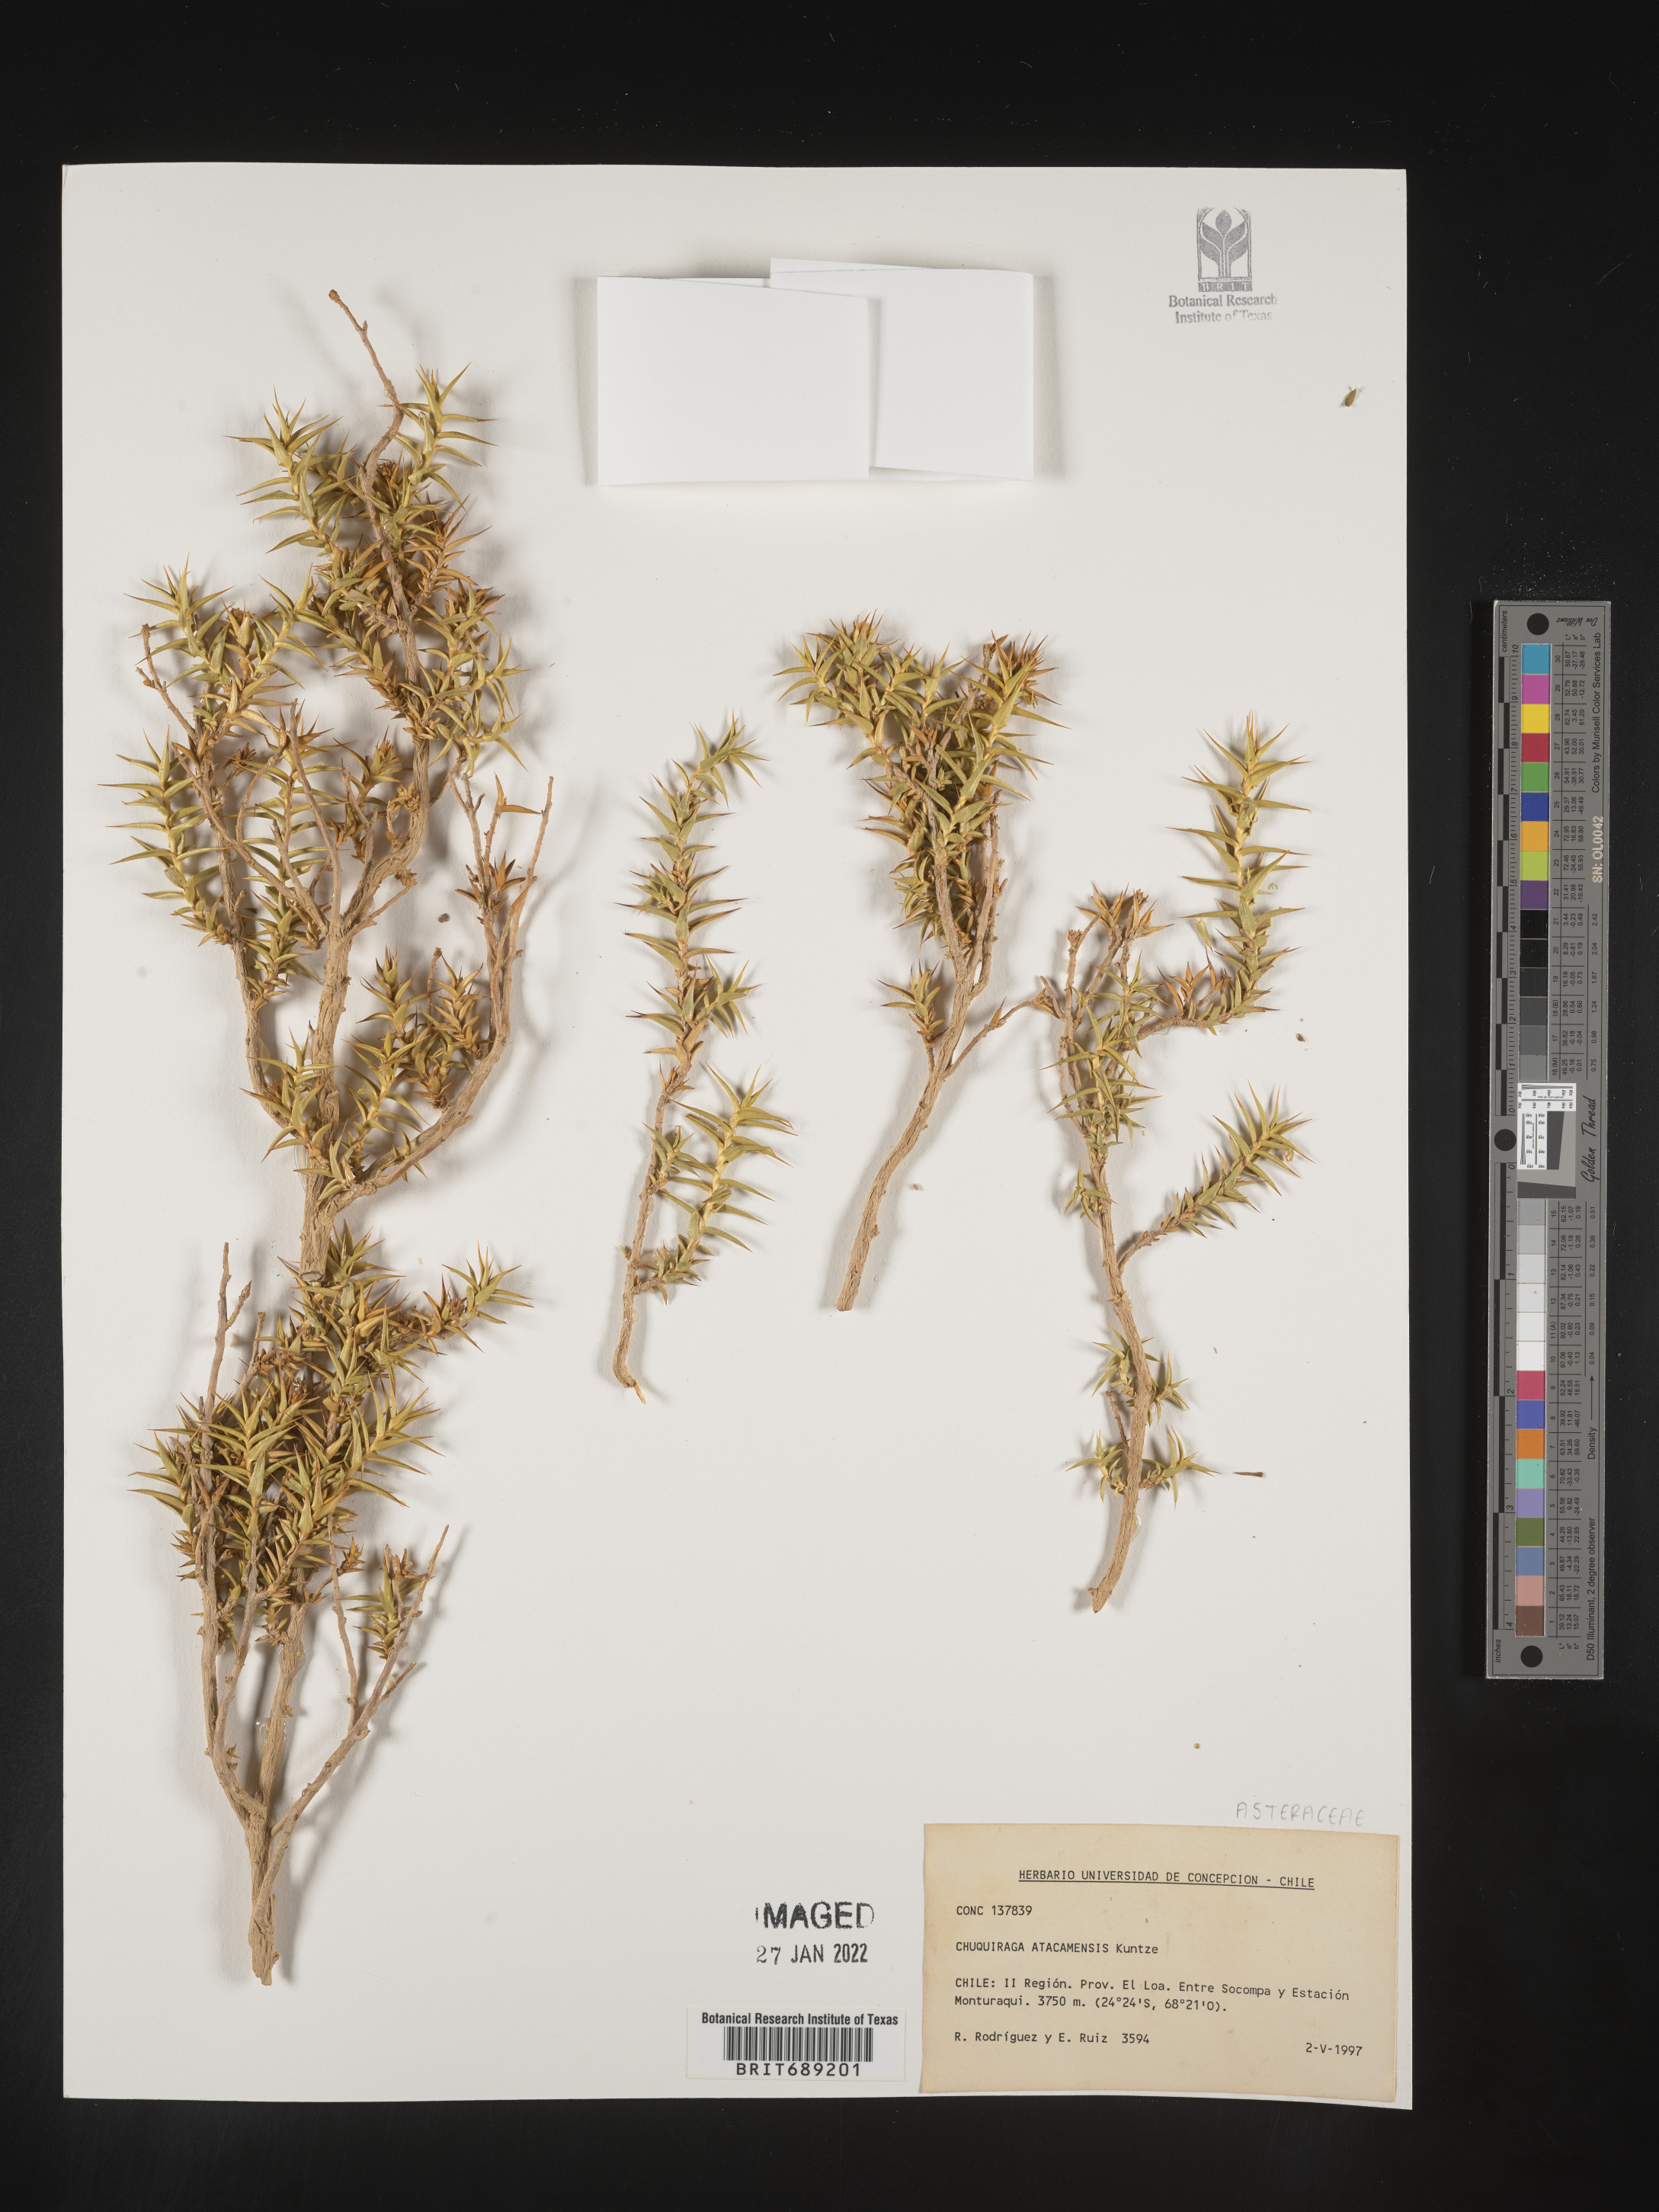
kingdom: Plantae
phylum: Tracheophyta
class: Magnoliopsida
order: Asterales
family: Asteraceae
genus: Chuquiraga
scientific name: Chuquiraga
